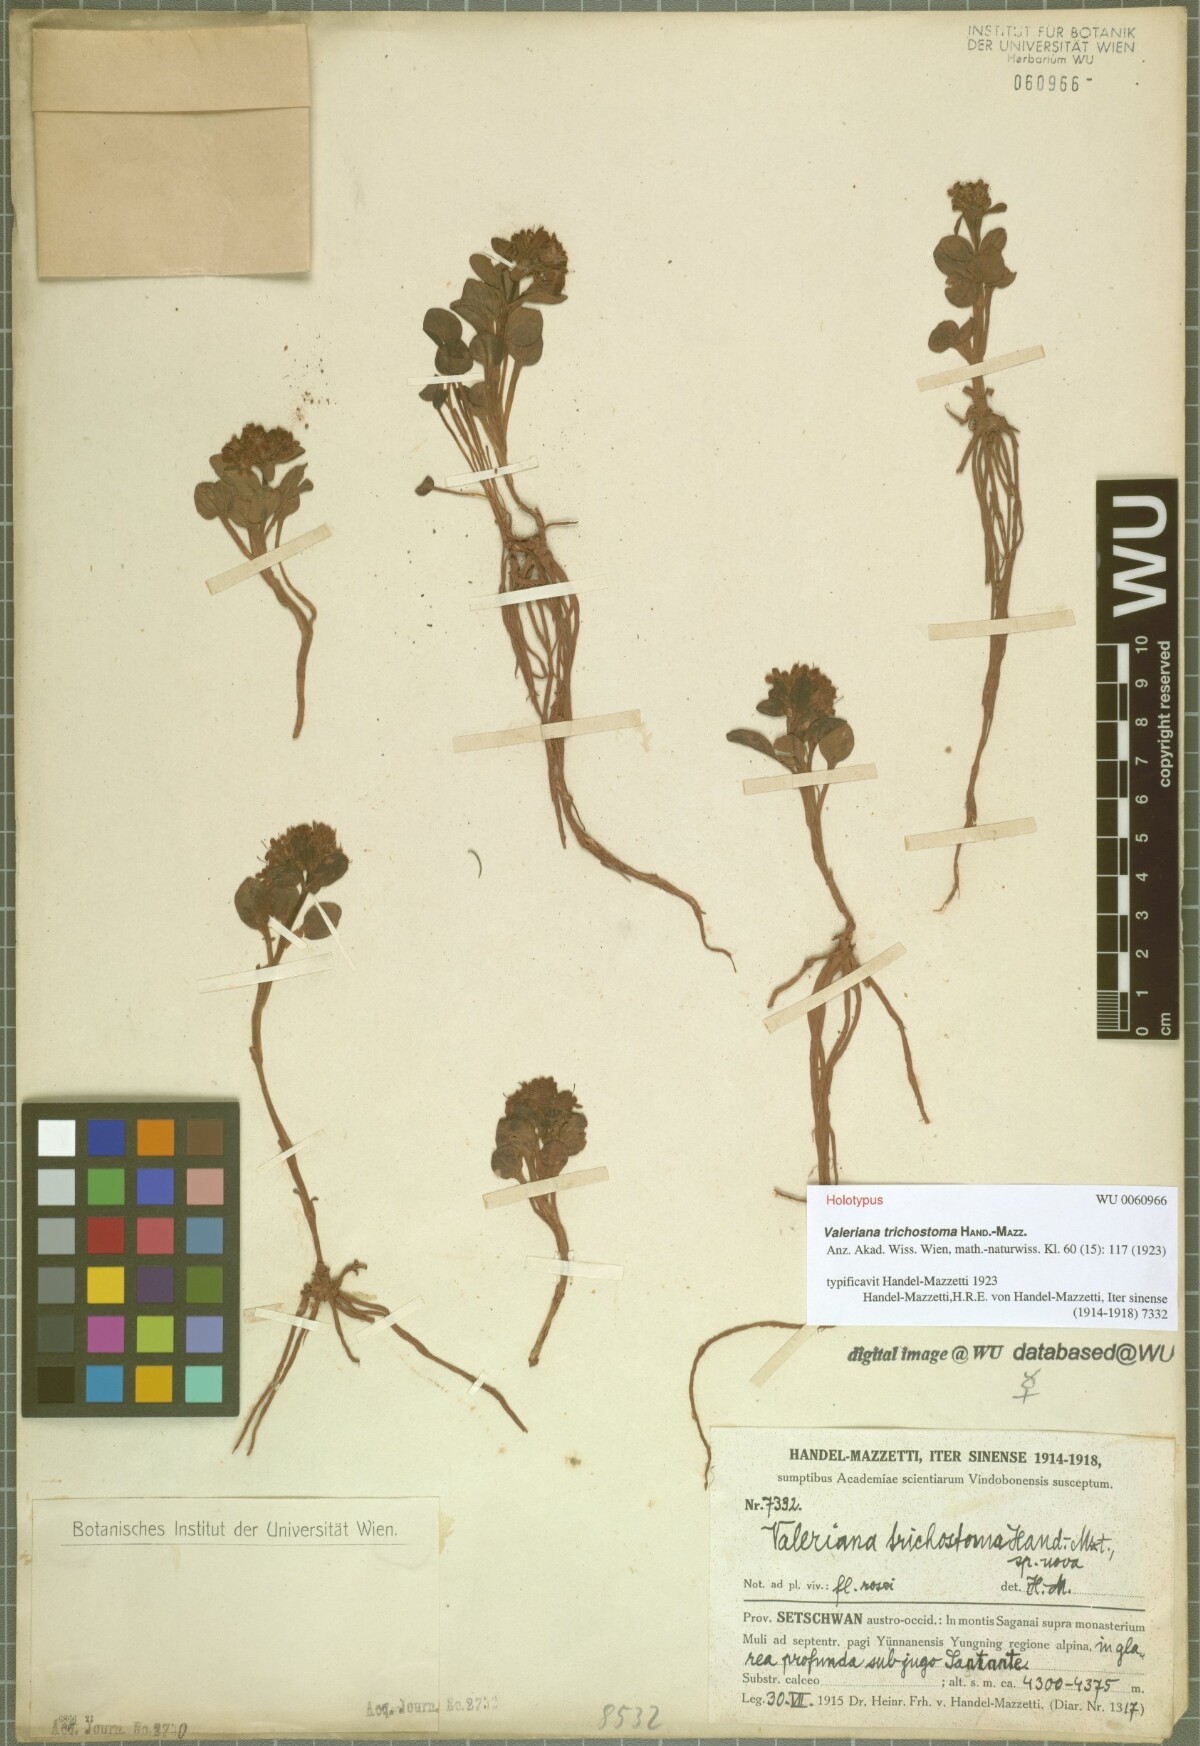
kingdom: Plantae
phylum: Tracheophyta
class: Magnoliopsida
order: Dipsacales
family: Caprifoliaceae
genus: Valeriana
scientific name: Valeriana trichostoma
